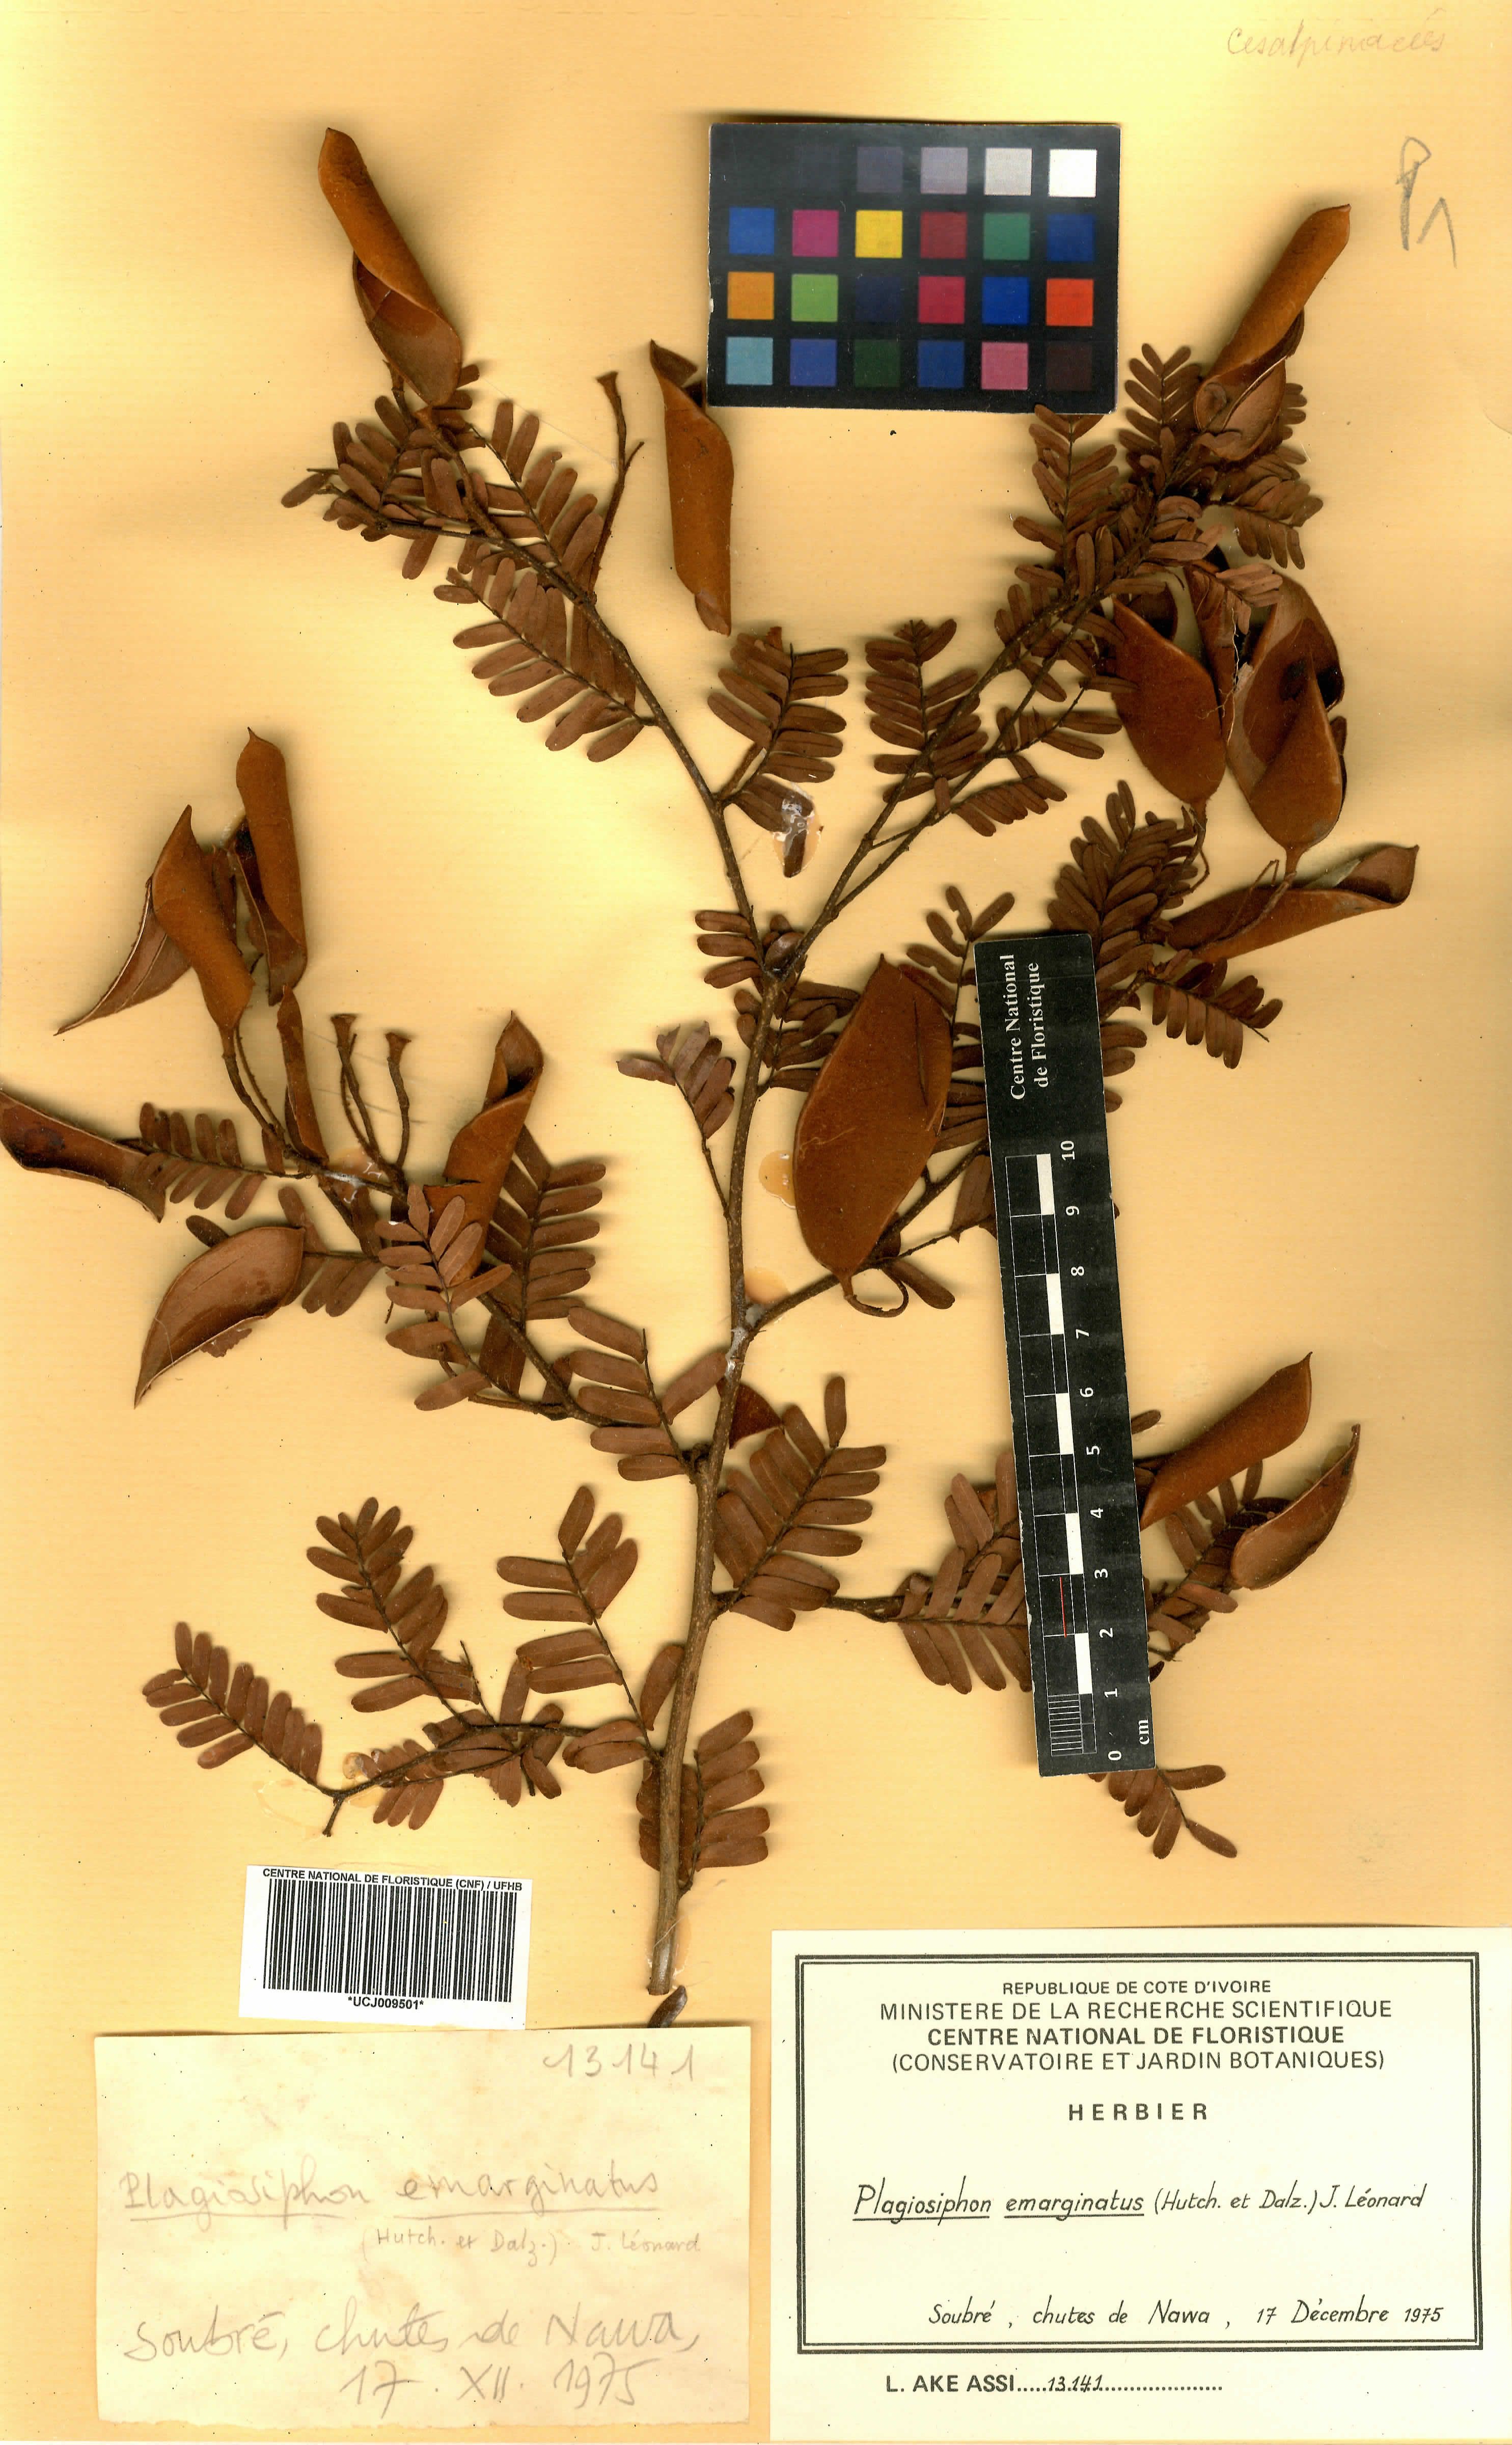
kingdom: Plantae
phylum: Tracheophyta
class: Magnoliopsida
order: Fabales
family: Fabaceae
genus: Plagiosiphon
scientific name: Plagiosiphon emarginatus
